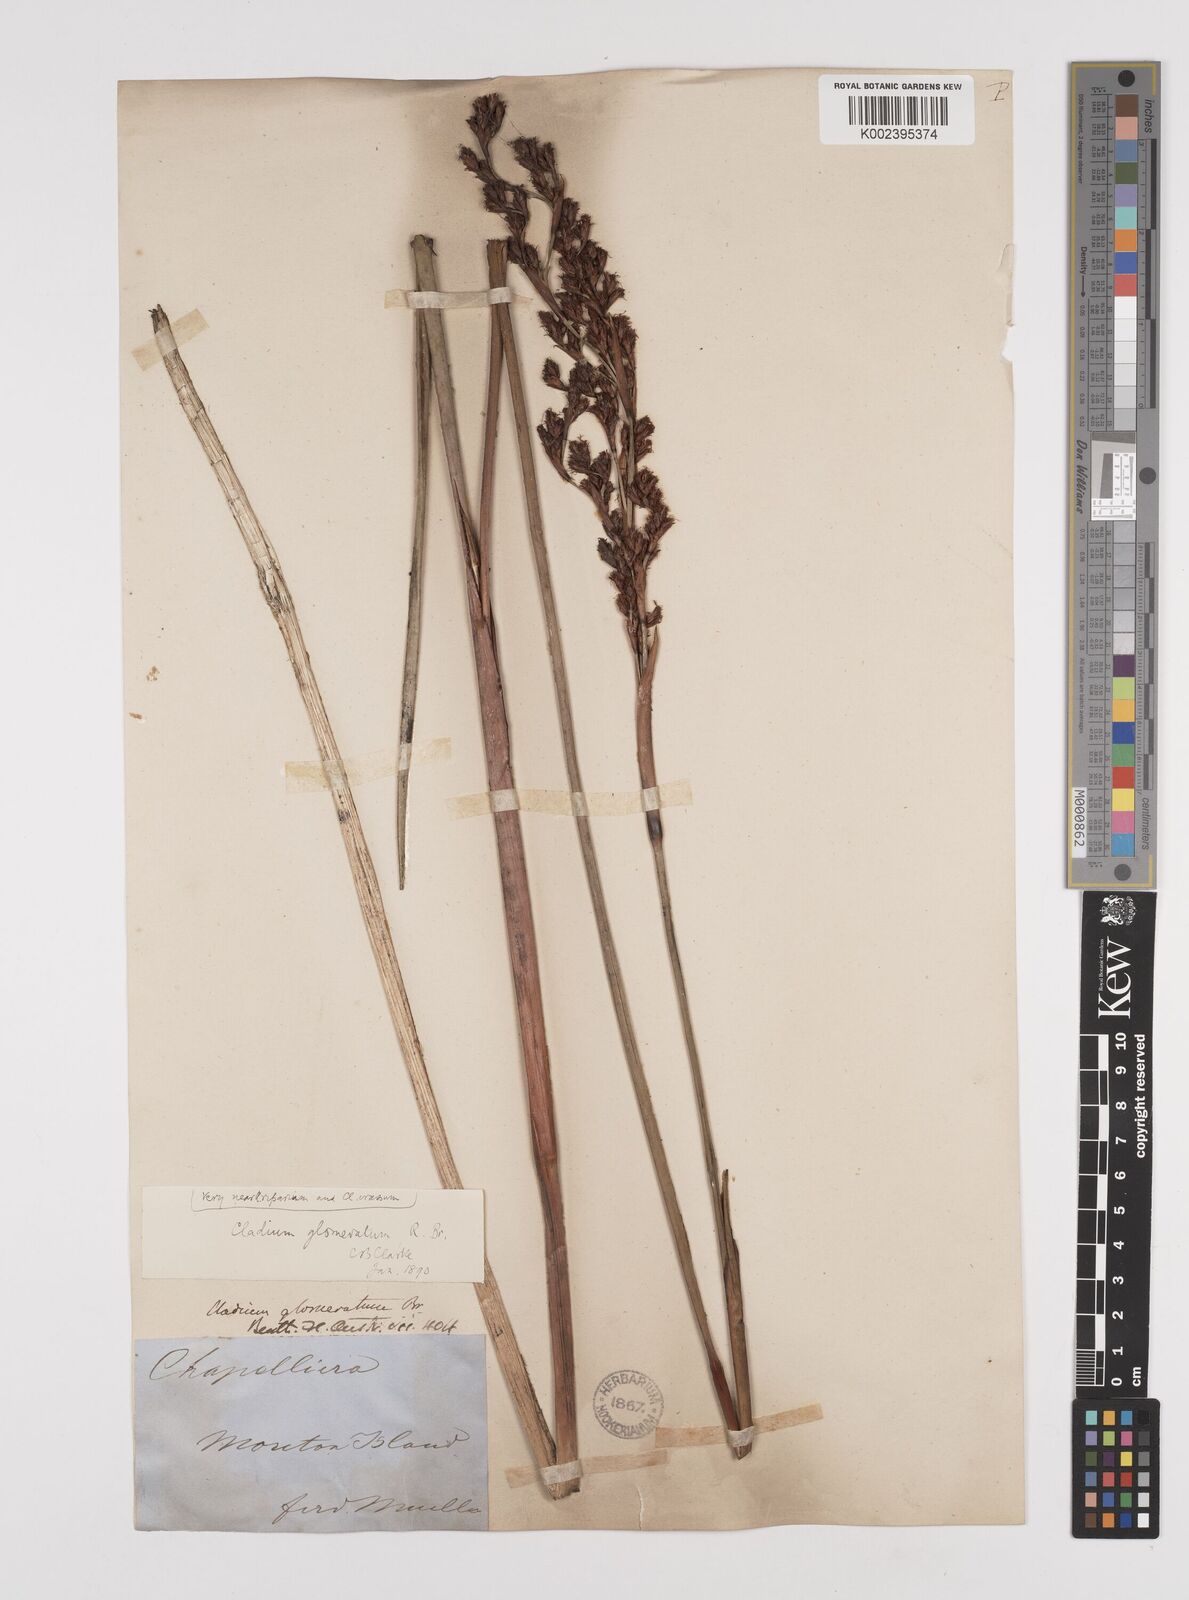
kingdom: Plantae
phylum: Tracheophyta
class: Liliopsida
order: Poales
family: Cyperaceae
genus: Machaerina
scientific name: Machaerina rubiginosa
